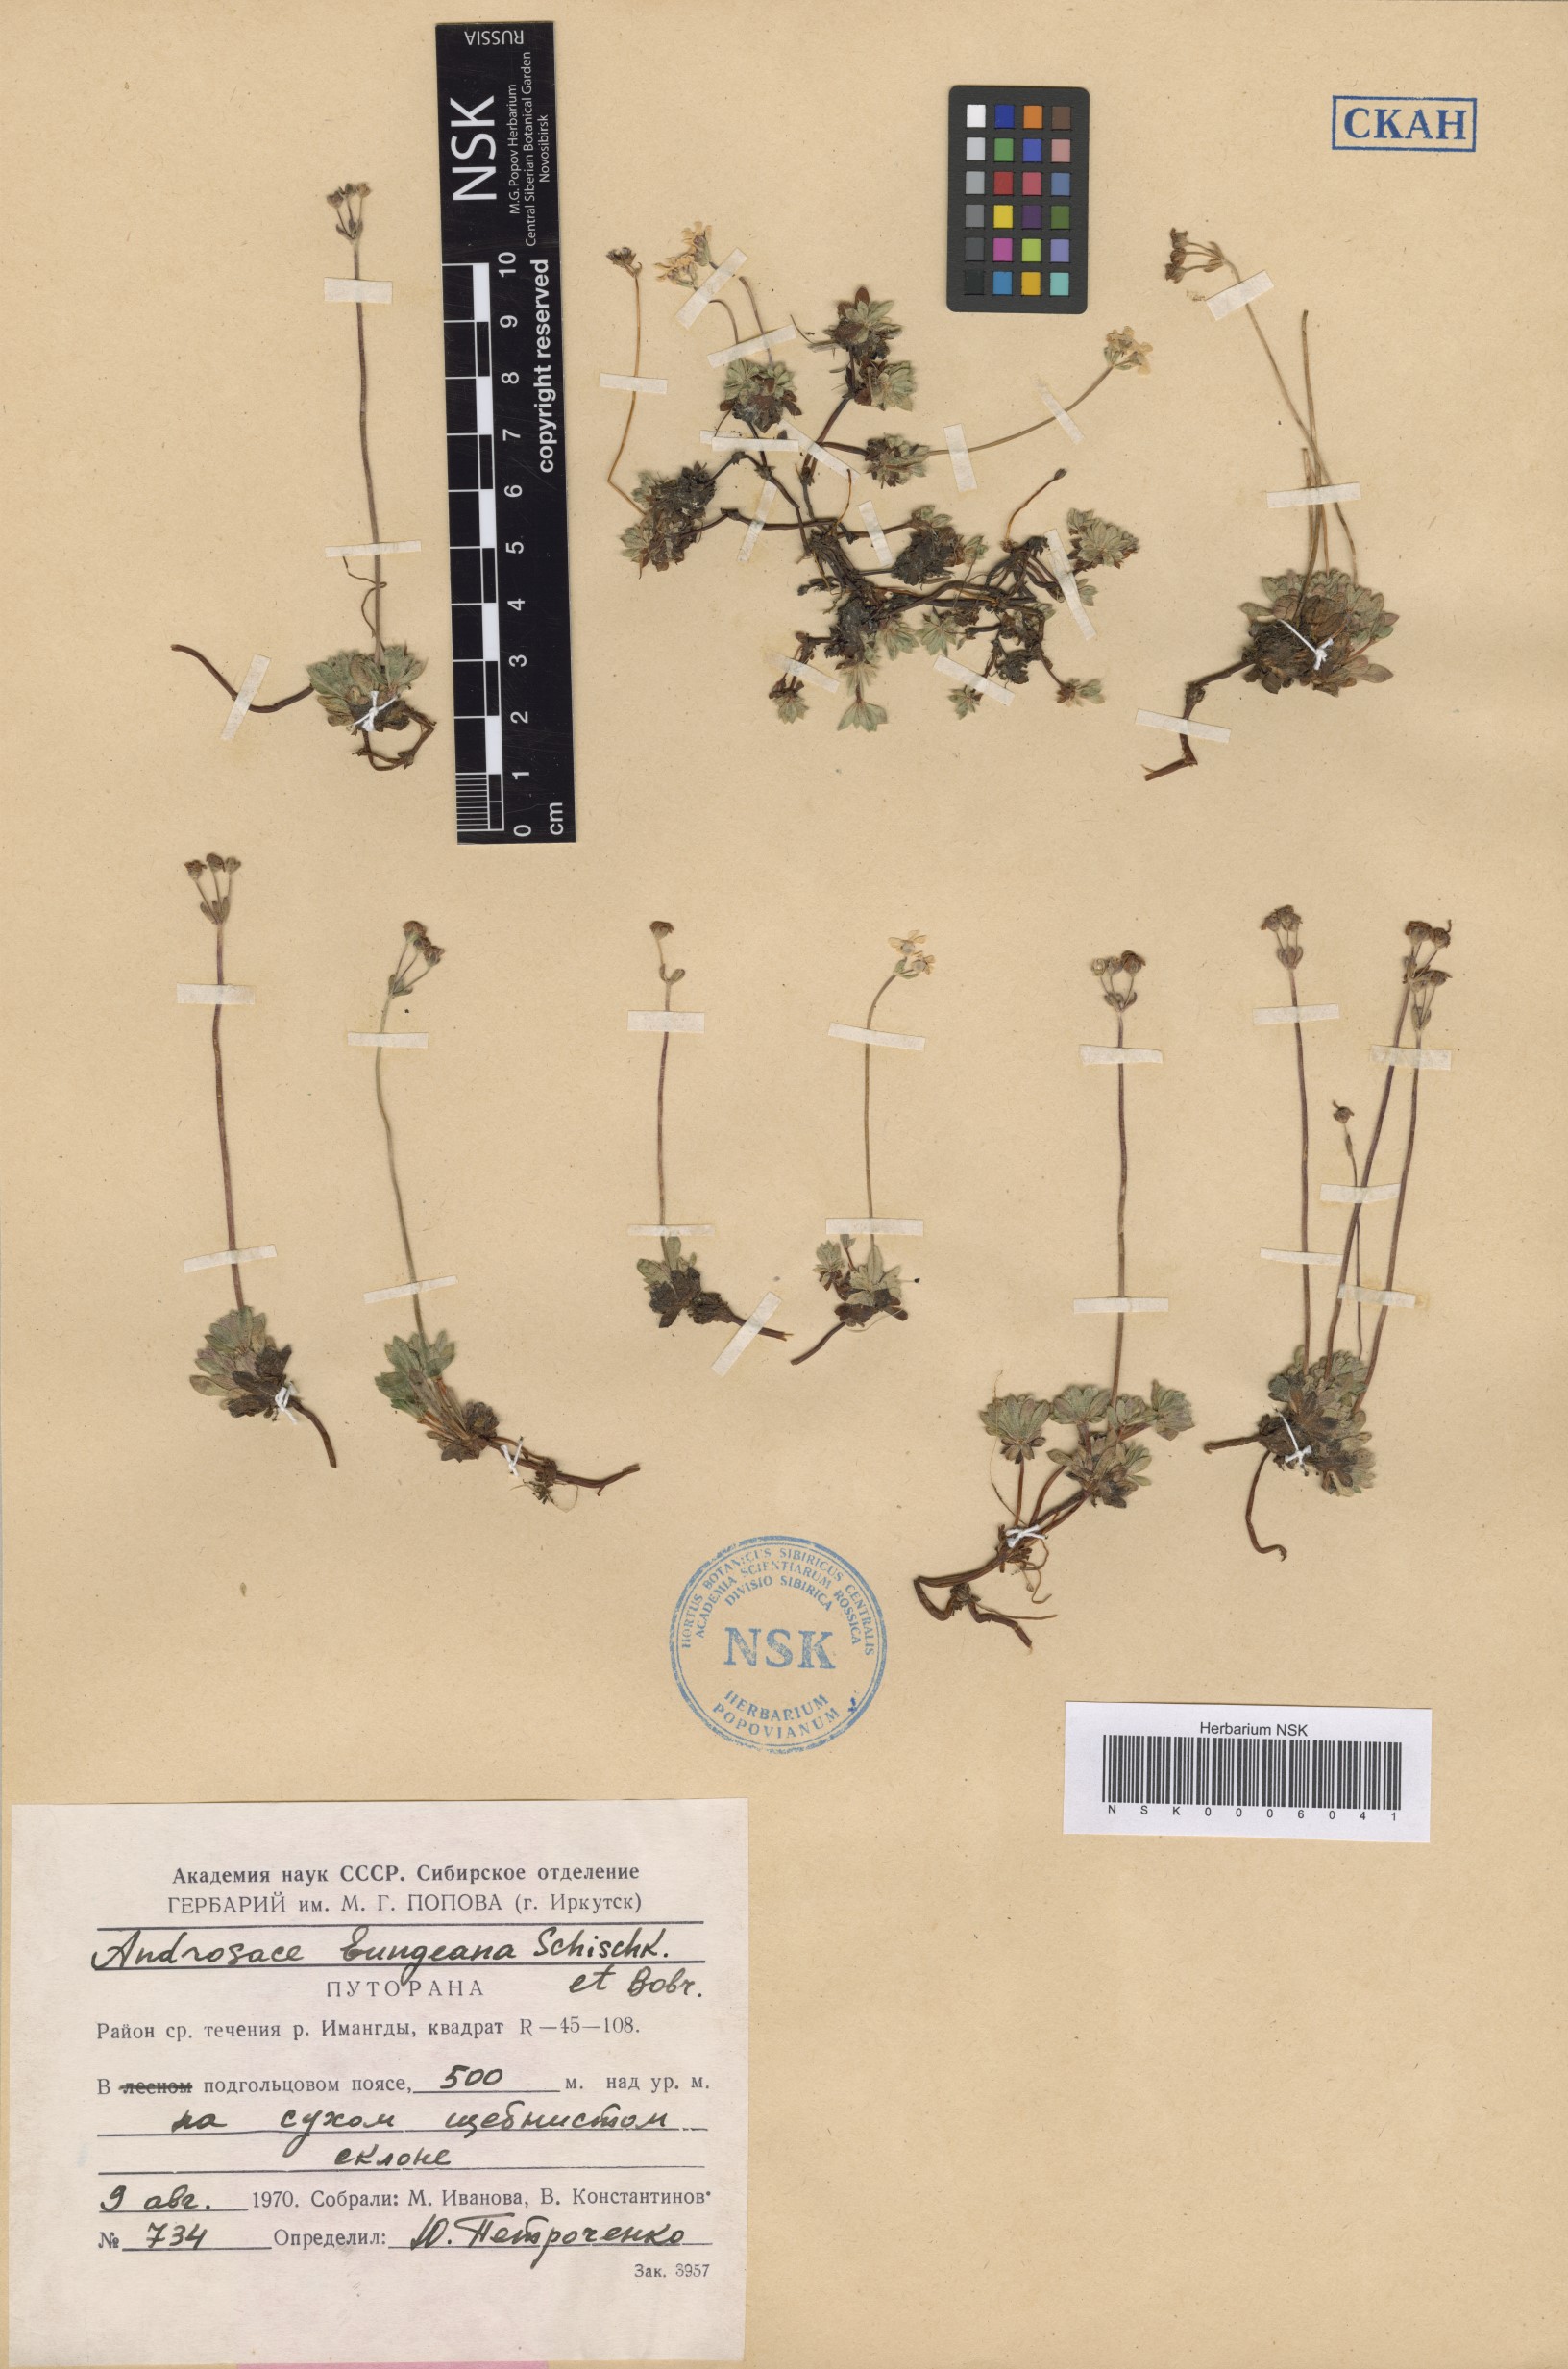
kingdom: Plantae
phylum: Tracheophyta
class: Magnoliopsida
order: Ericales
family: Primulaceae
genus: Androsace
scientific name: Androsace bungeana
